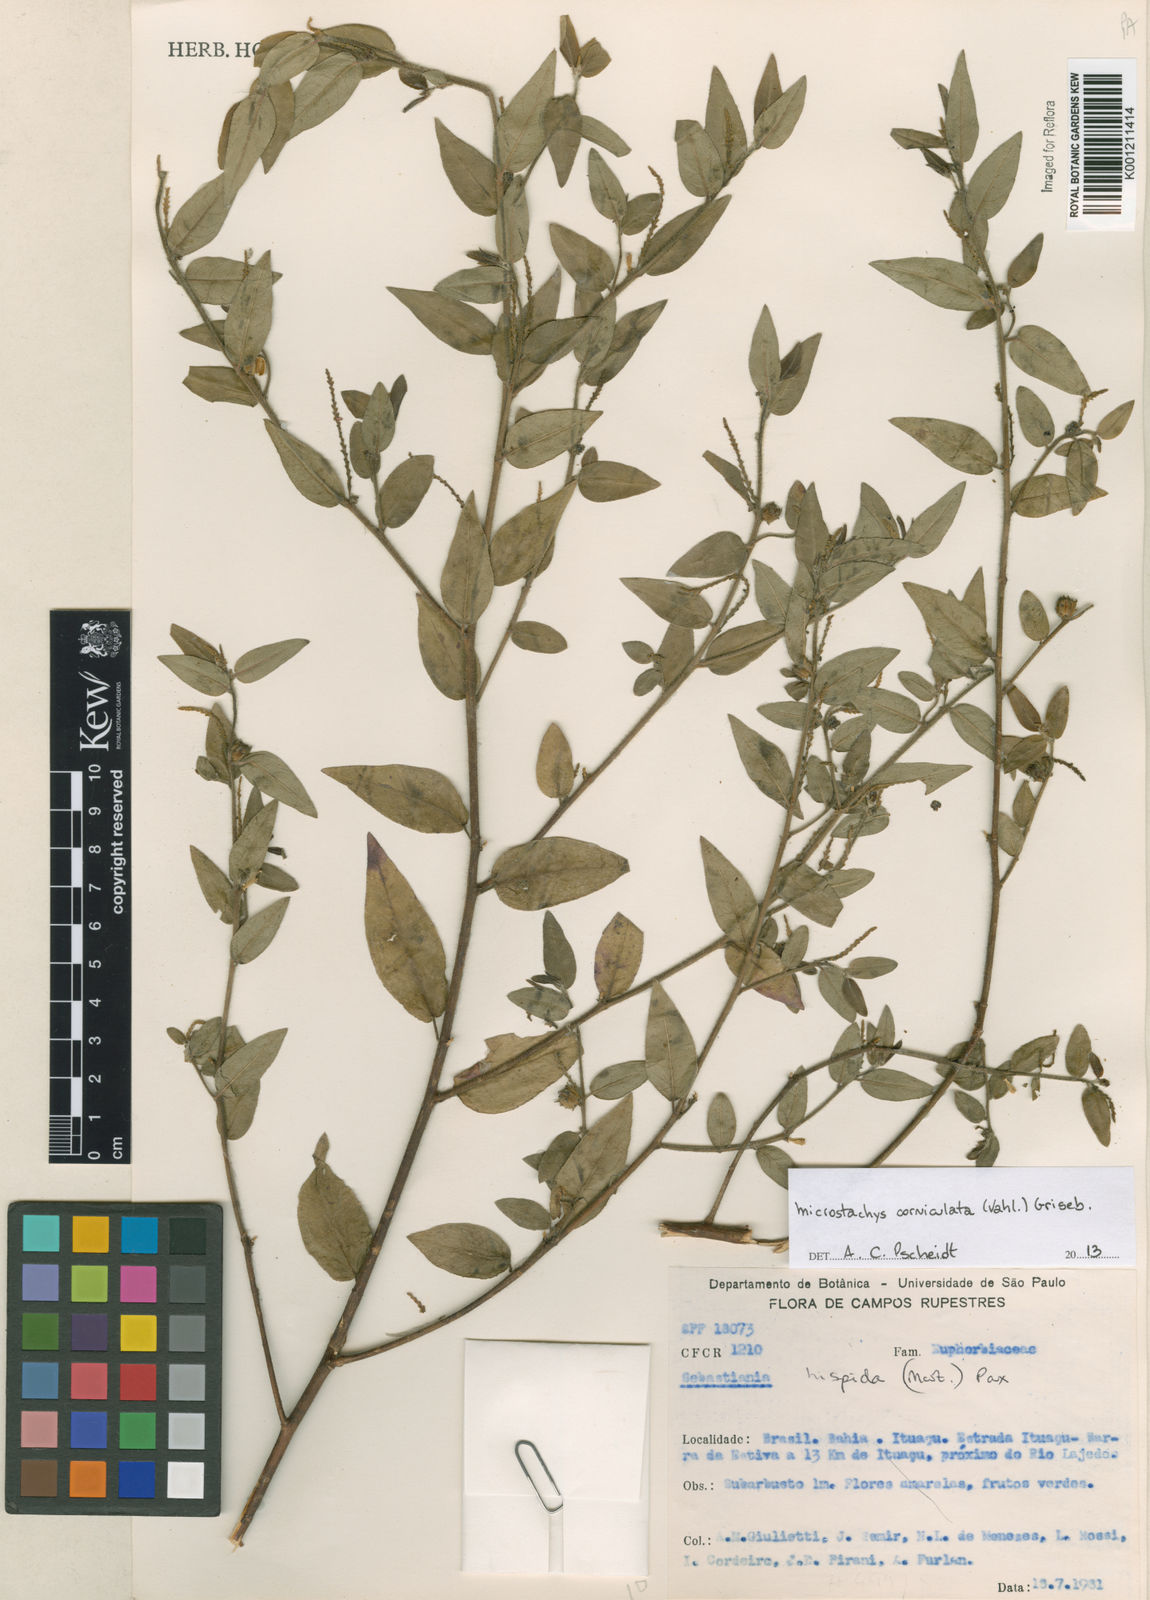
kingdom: Plantae
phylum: Tracheophyta
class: Magnoliopsida
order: Malpighiales
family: Euphorbiaceae
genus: Microstachys
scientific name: Microstachys corniculata
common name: Hato tejas
